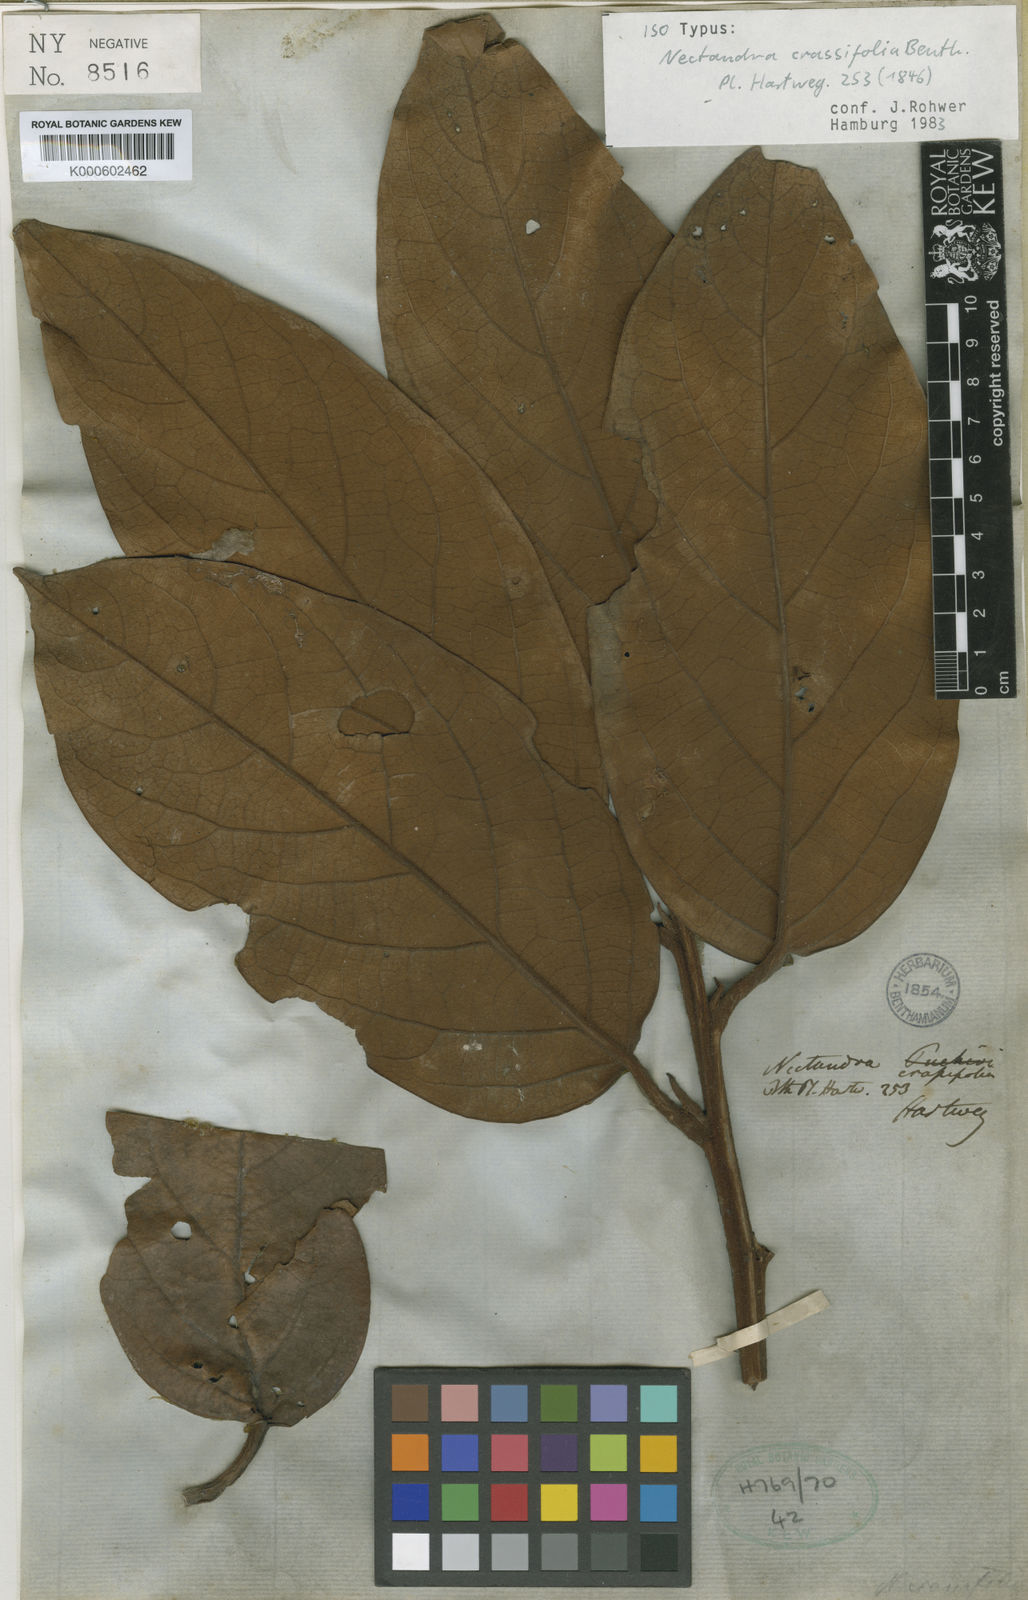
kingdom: Plantae
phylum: Tracheophyta
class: Magnoliopsida
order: Laurales
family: Lauraceae
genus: Ocotea
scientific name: Ocotea benthamiana
